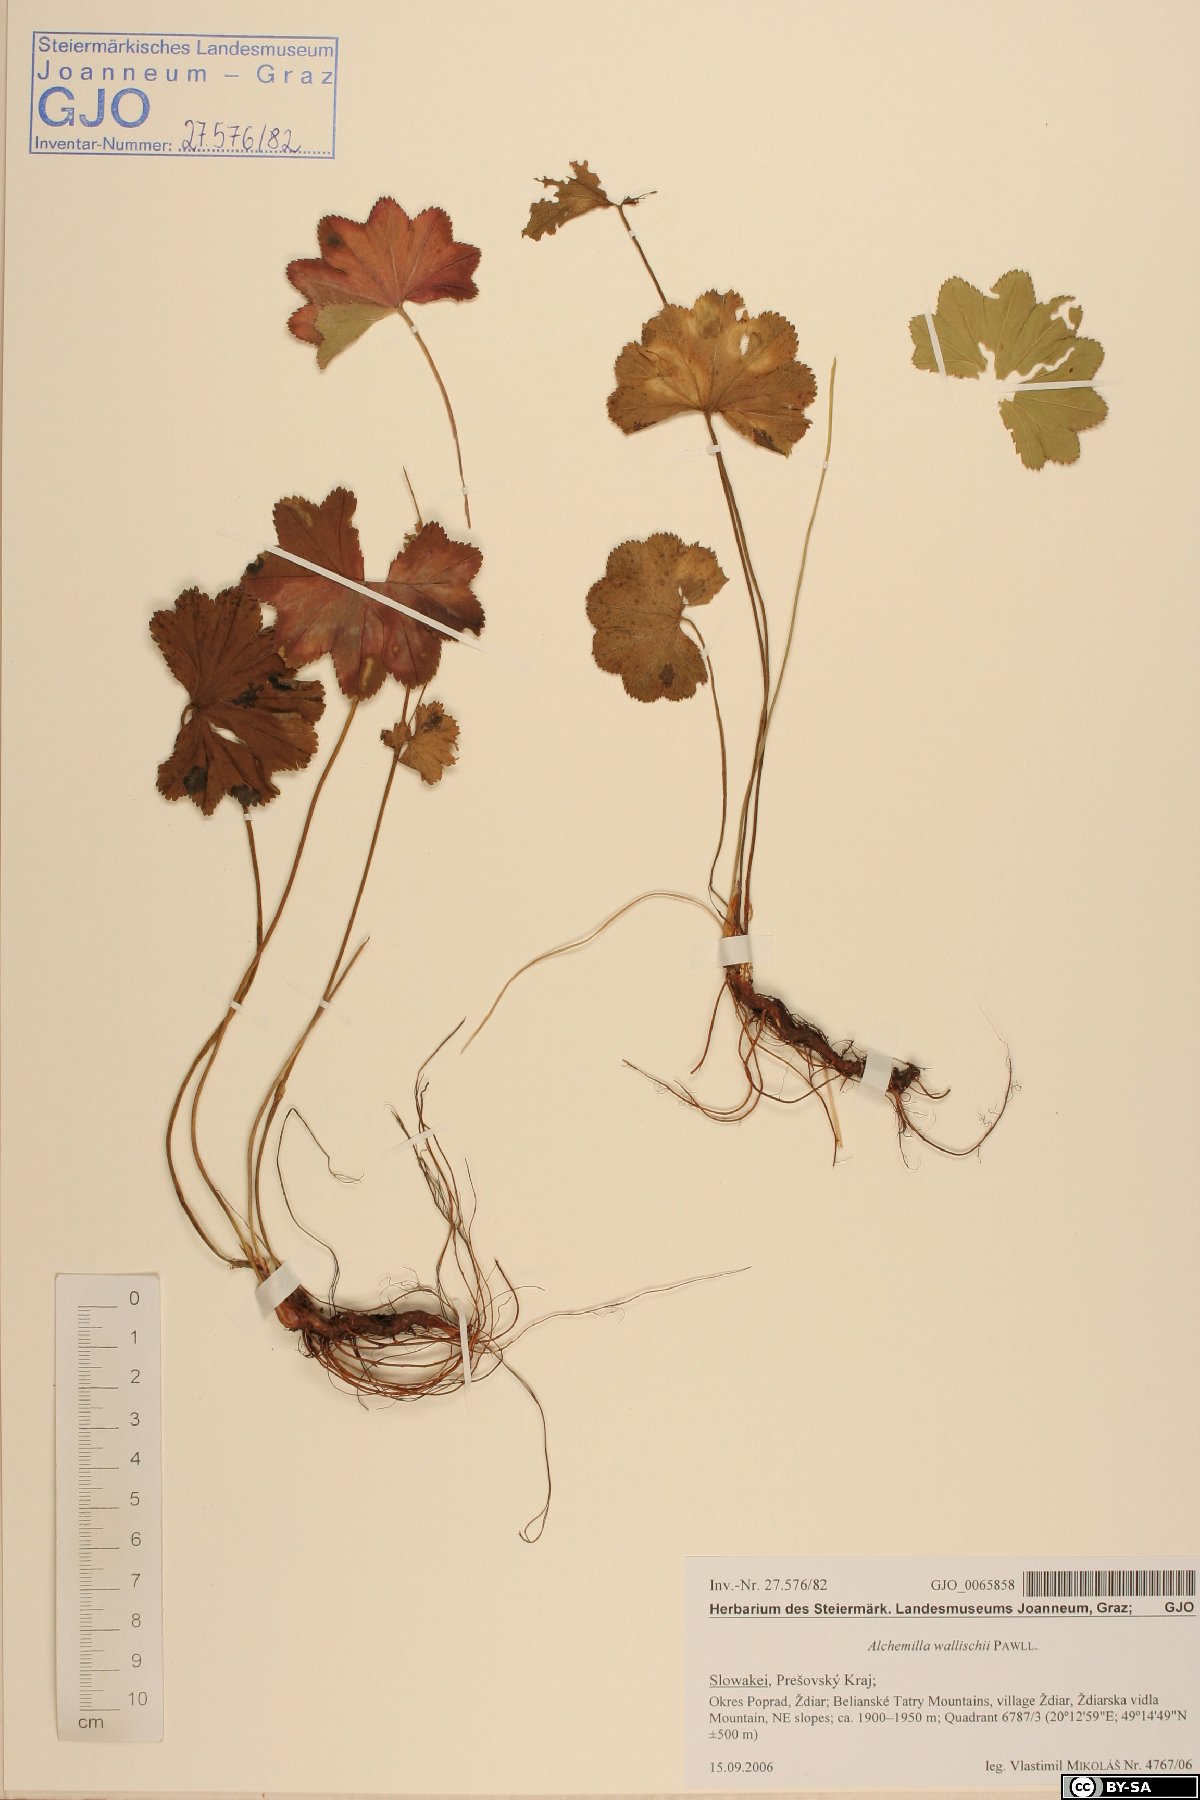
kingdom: Plantae
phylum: Tracheophyta
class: Magnoliopsida
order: Rosales
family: Rosaceae
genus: Alchemilla
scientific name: Alchemilla walasii
